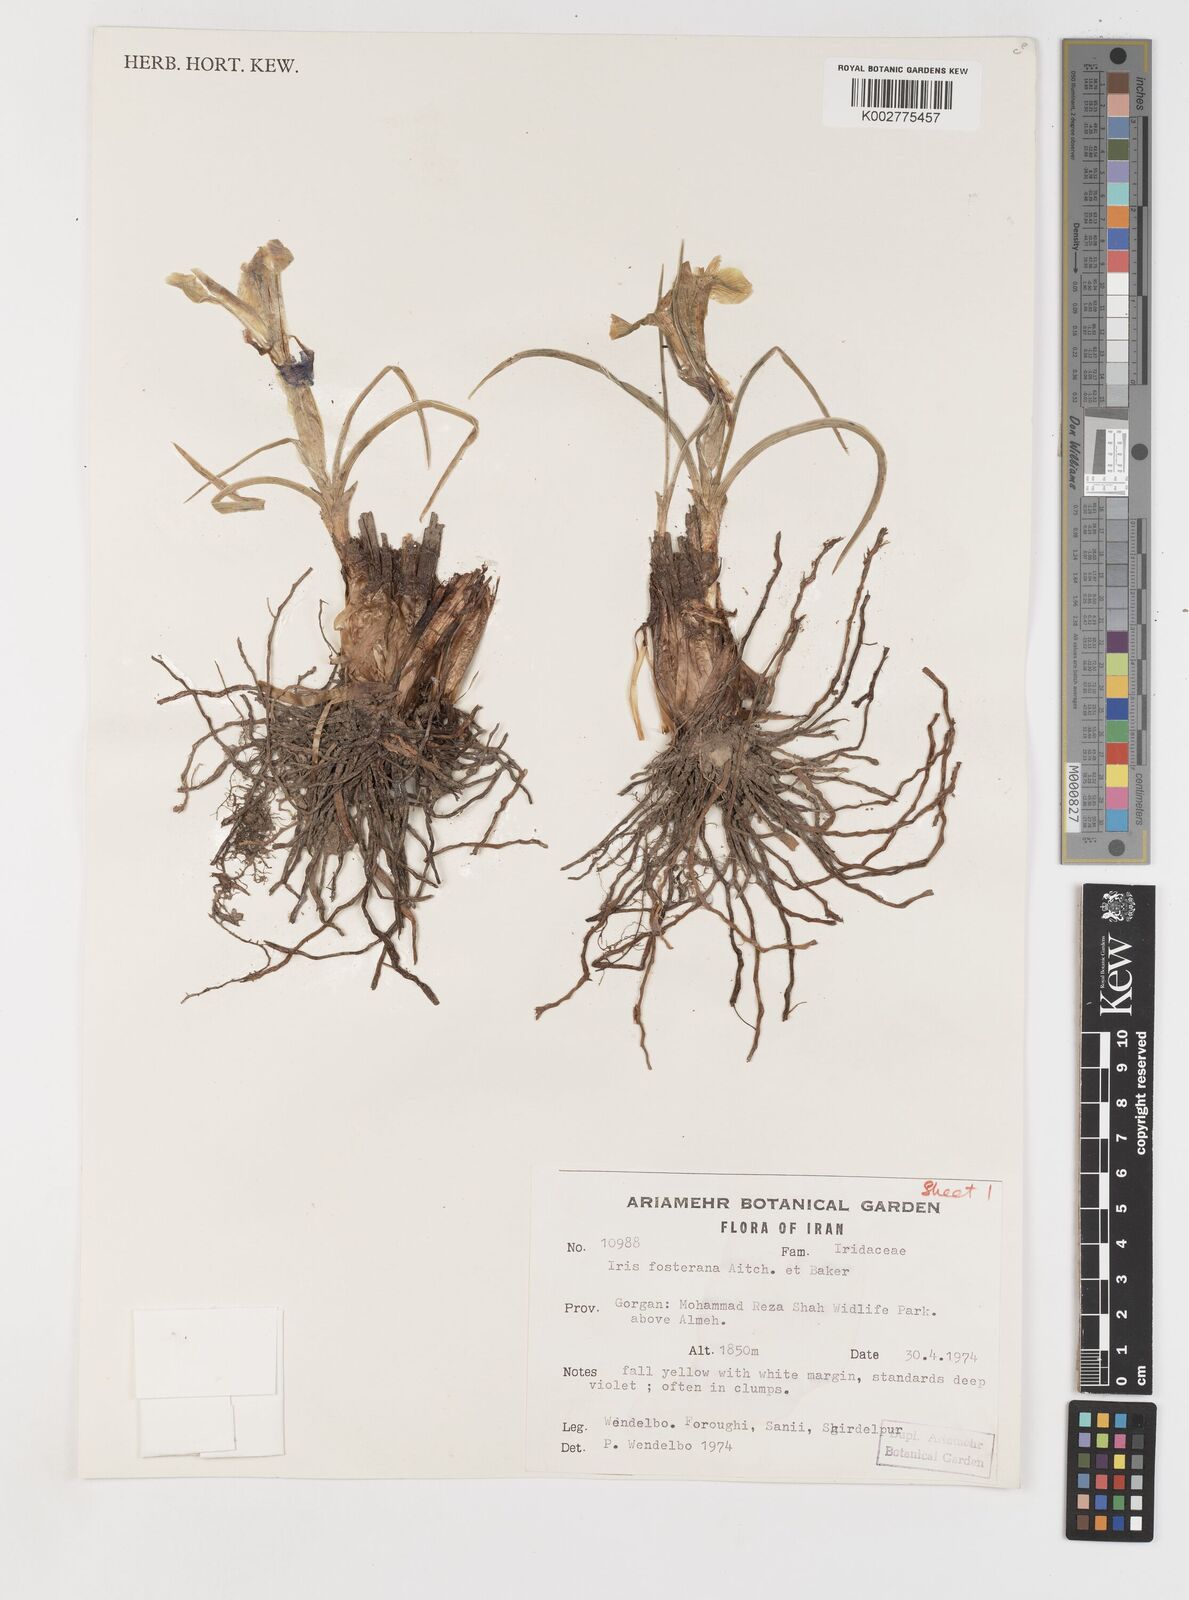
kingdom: Plantae
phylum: Tracheophyta
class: Liliopsida
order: Asparagales
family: Iridaceae
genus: Iris
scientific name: Iris fosteriana
